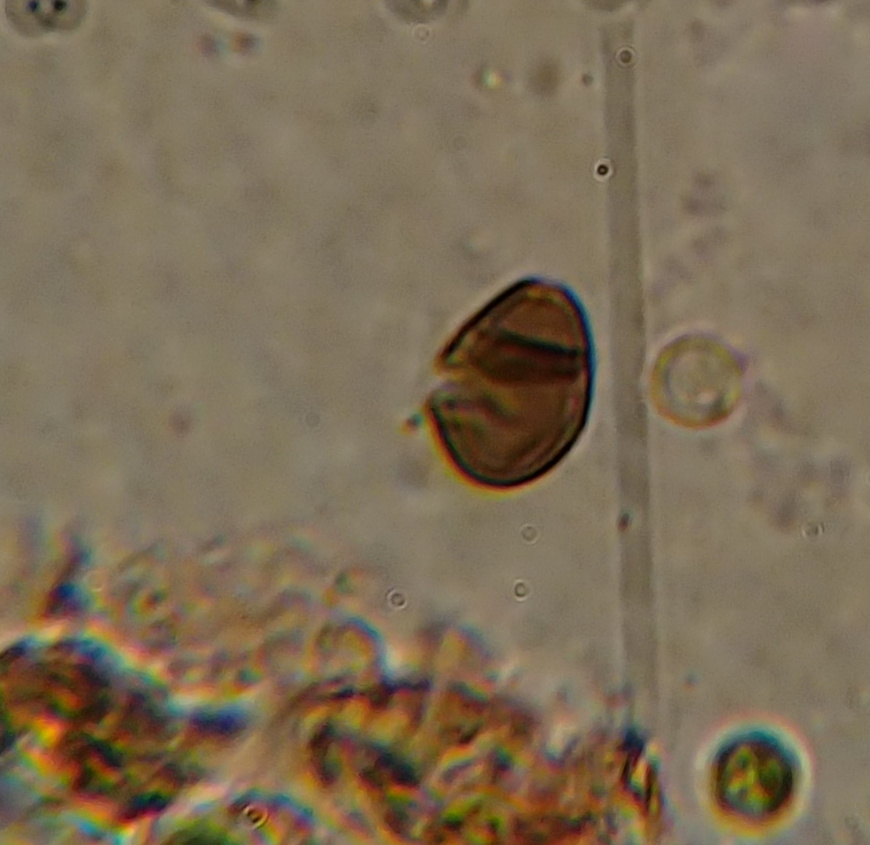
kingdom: Fungi
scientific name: Fungi
